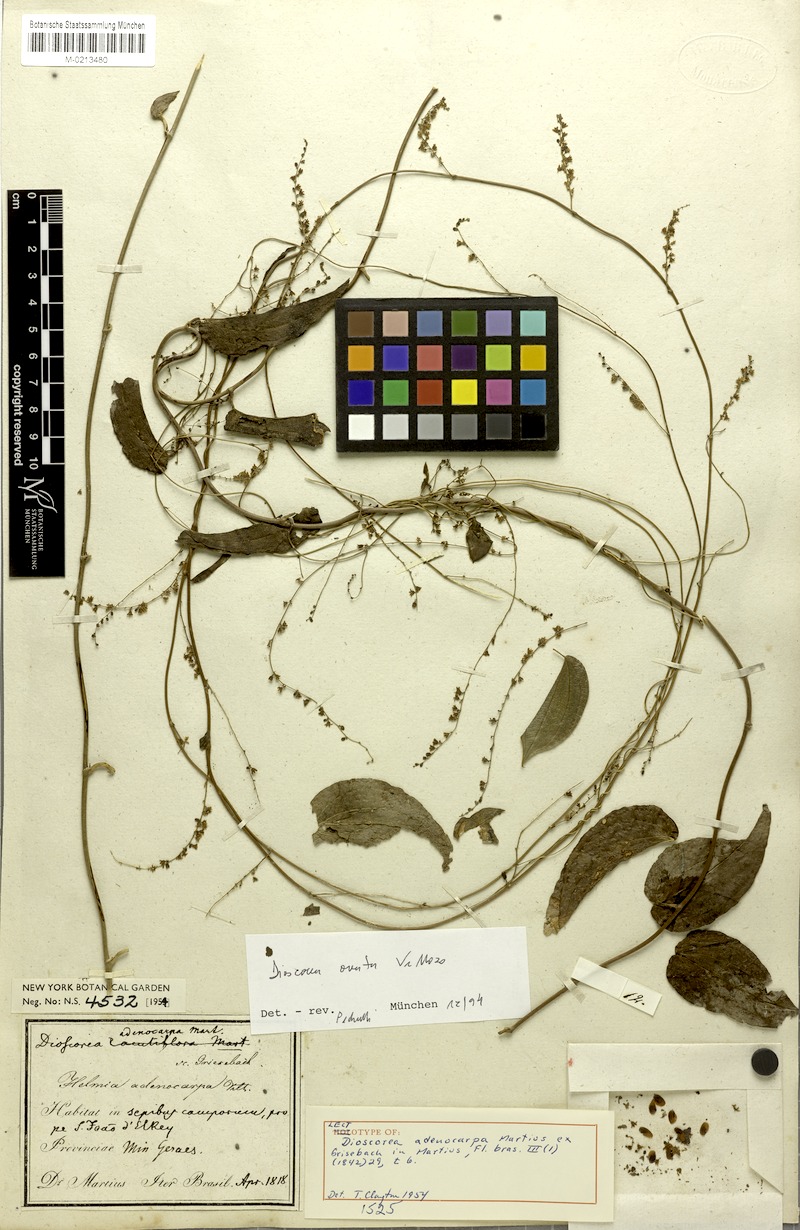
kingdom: Plantae
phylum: Tracheophyta
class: Liliopsida
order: Dioscoreales
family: Dioscoreaceae
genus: Dioscorea
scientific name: Dioscorea ovata
